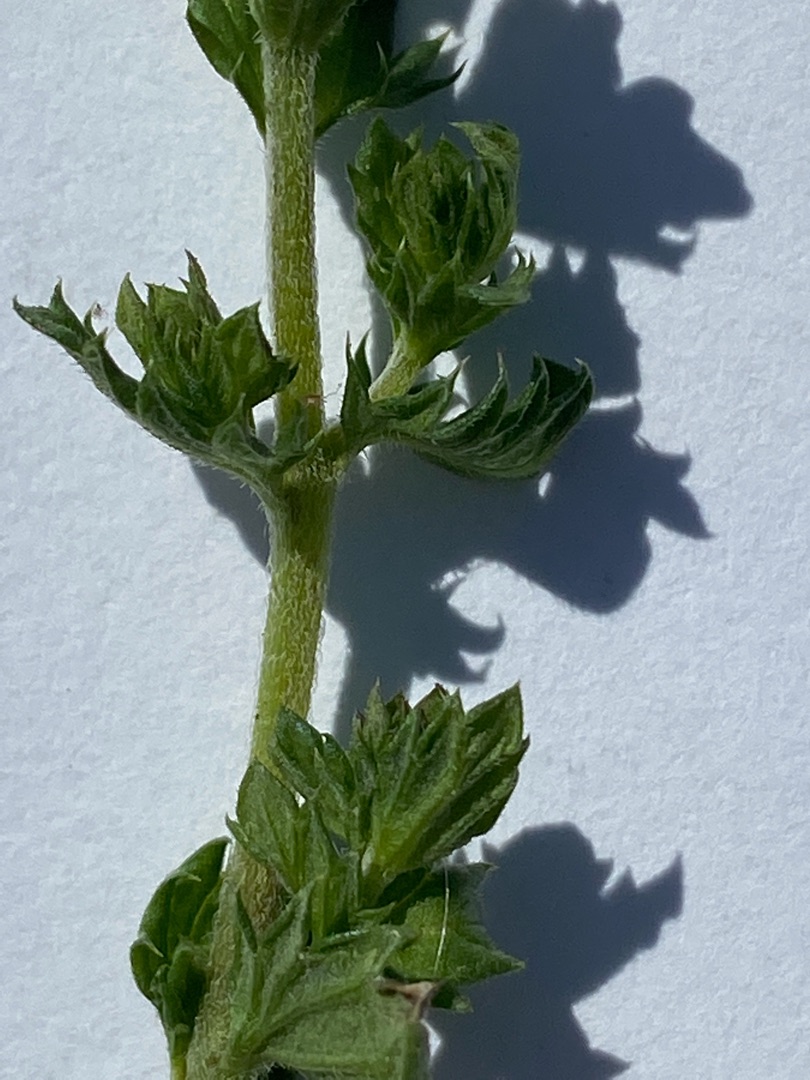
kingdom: Plantae
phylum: Tracheophyta
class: Magnoliopsida
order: Lamiales
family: Orobanchaceae
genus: Euphrasia
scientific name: Euphrasia stricta
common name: Spids øjentrøst
